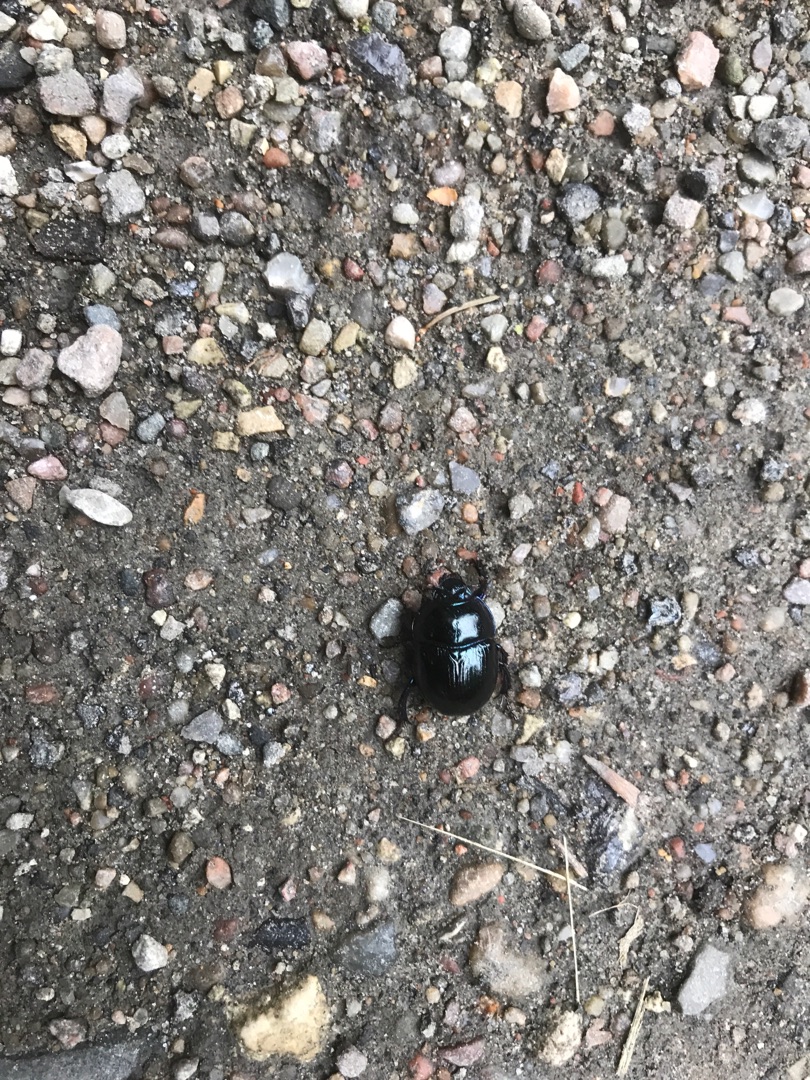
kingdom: Animalia
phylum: Arthropoda
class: Insecta
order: Coleoptera
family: Geotrupidae
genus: Anoplotrupes
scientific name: Anoplotrupes stercorosus
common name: Skovskarnbasse
